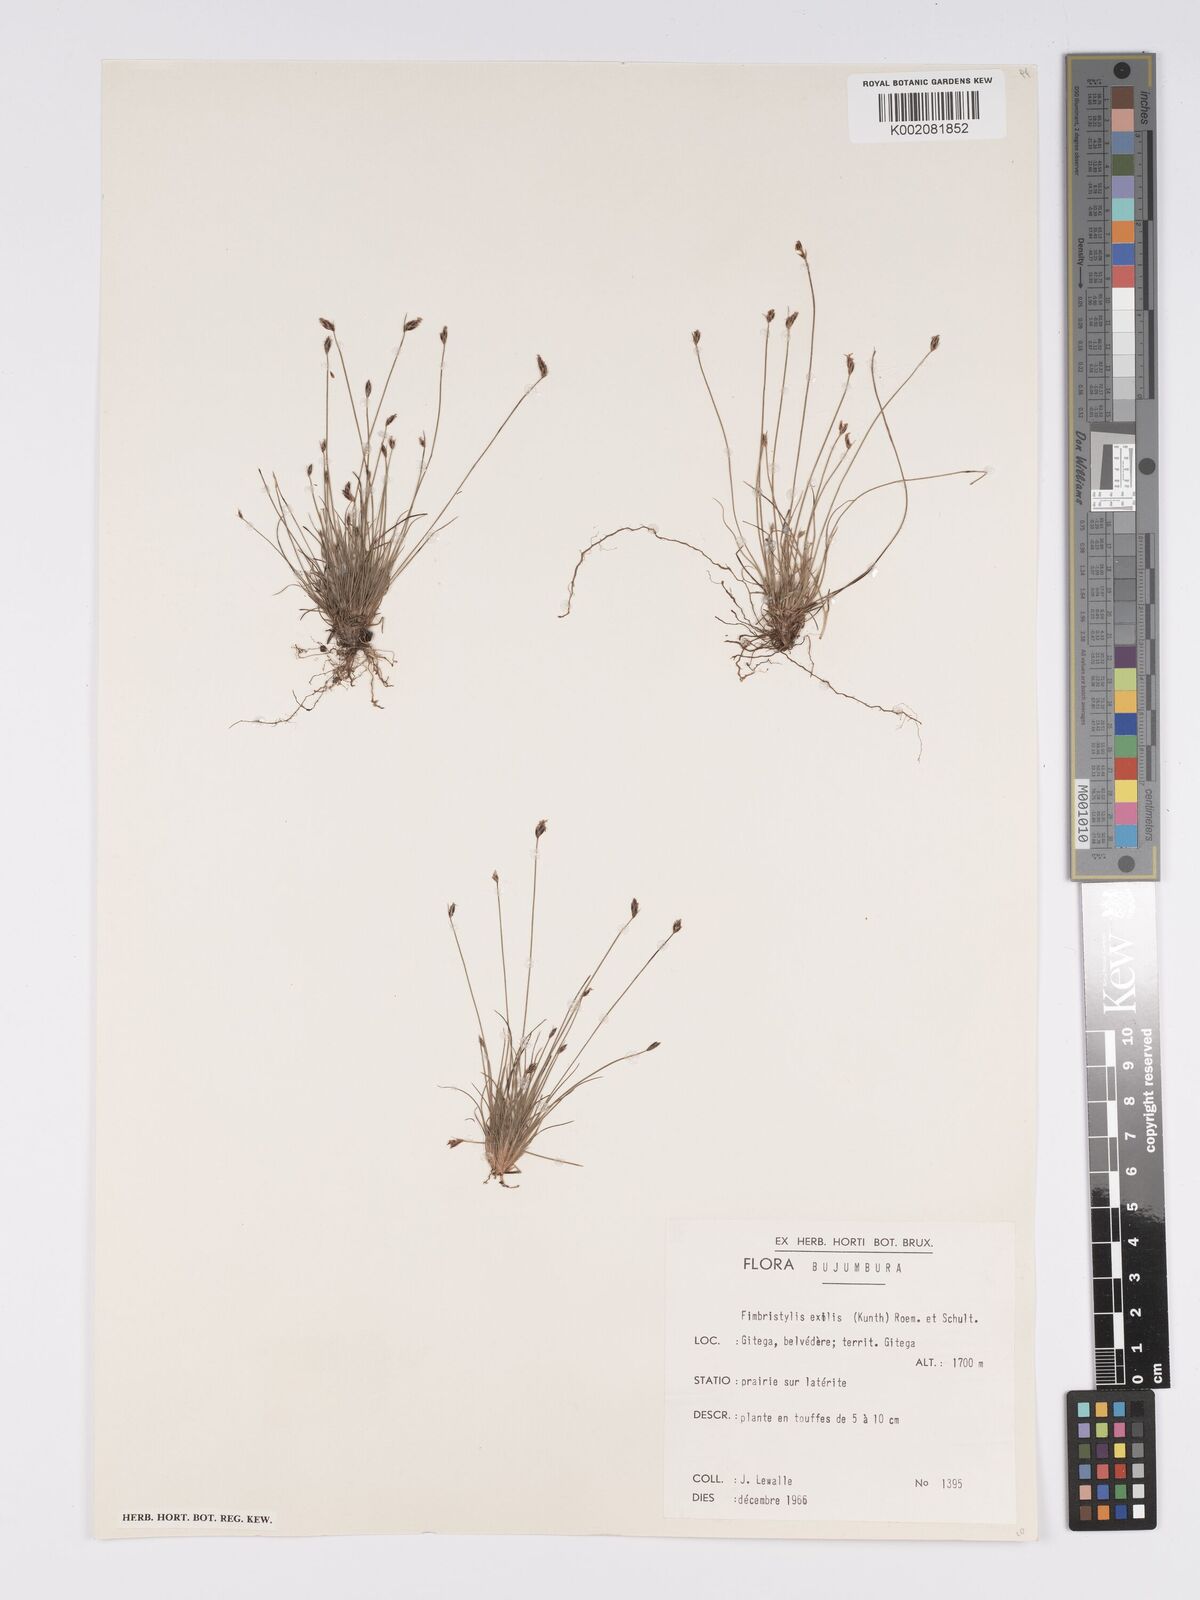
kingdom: Plantae
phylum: Tracheophyta
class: Liliopsida
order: Poales
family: Cyperaceae
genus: Bulbostylis
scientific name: Bulbostylis hispidula
